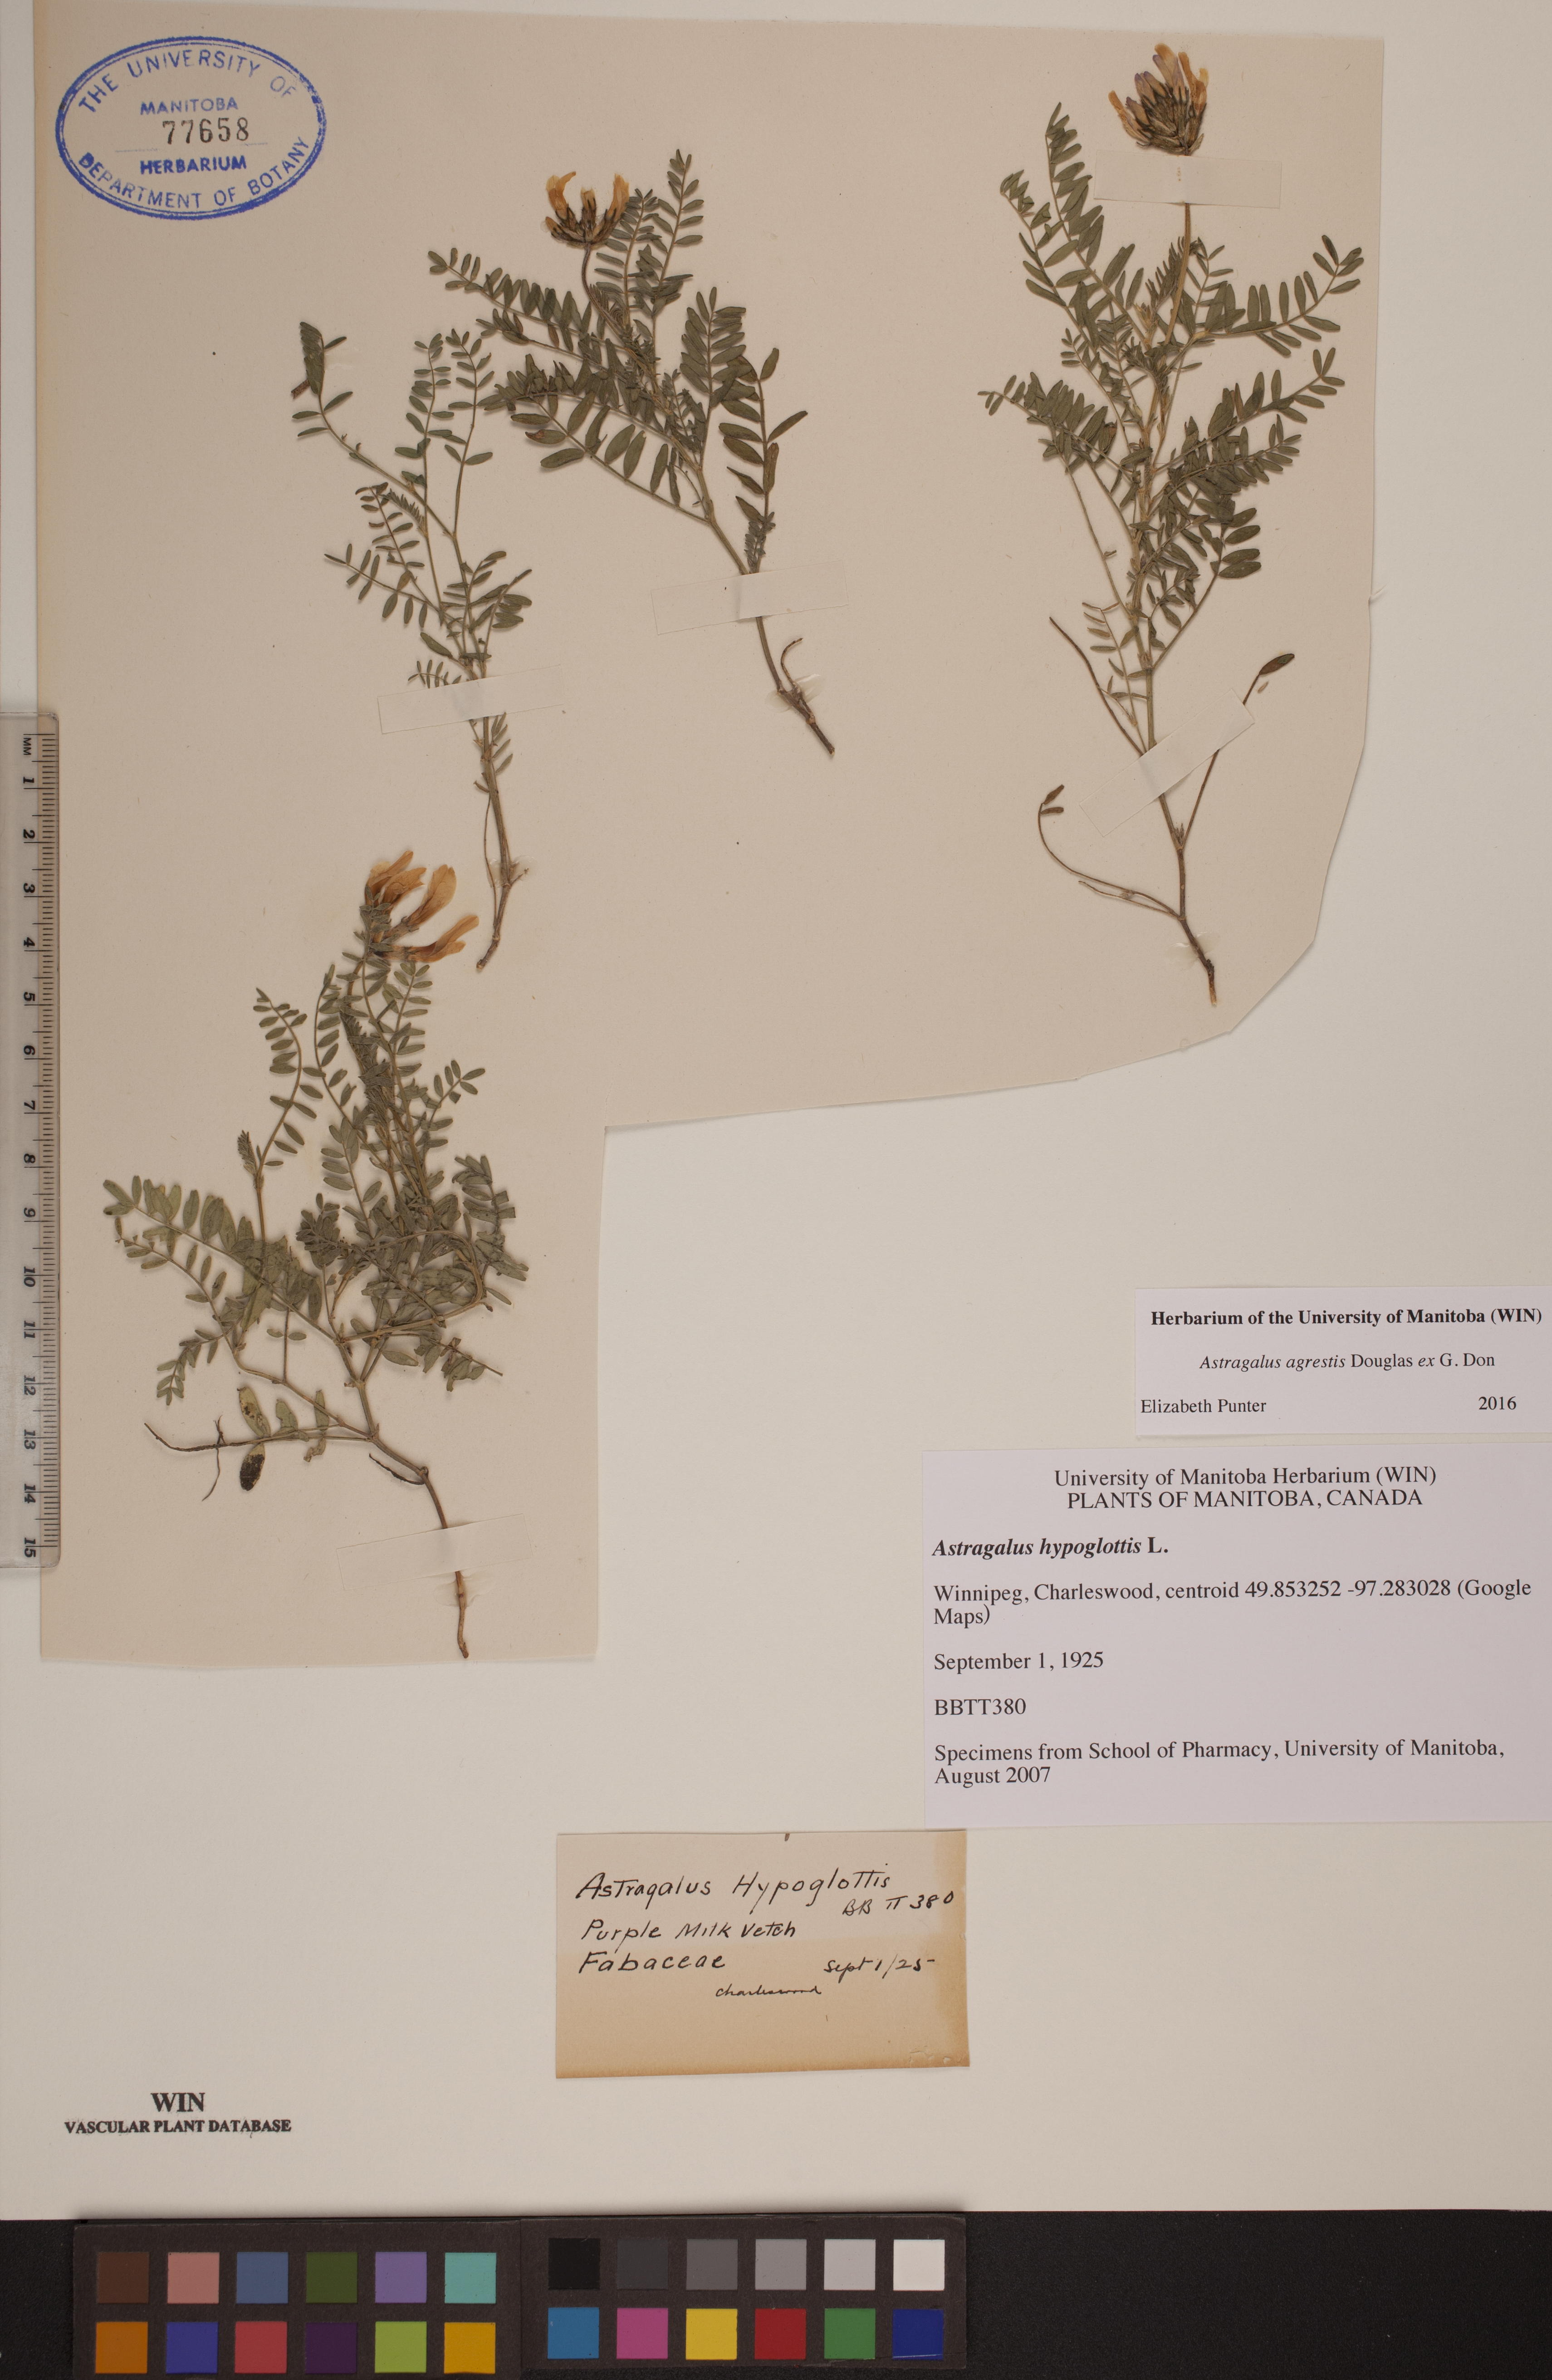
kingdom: Plantae
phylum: Tracheophyta
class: Magnoliopsida
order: Fabales
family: Fabaceae
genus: Astragalus
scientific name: Astragalus agrestis
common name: Field milk-vetch
